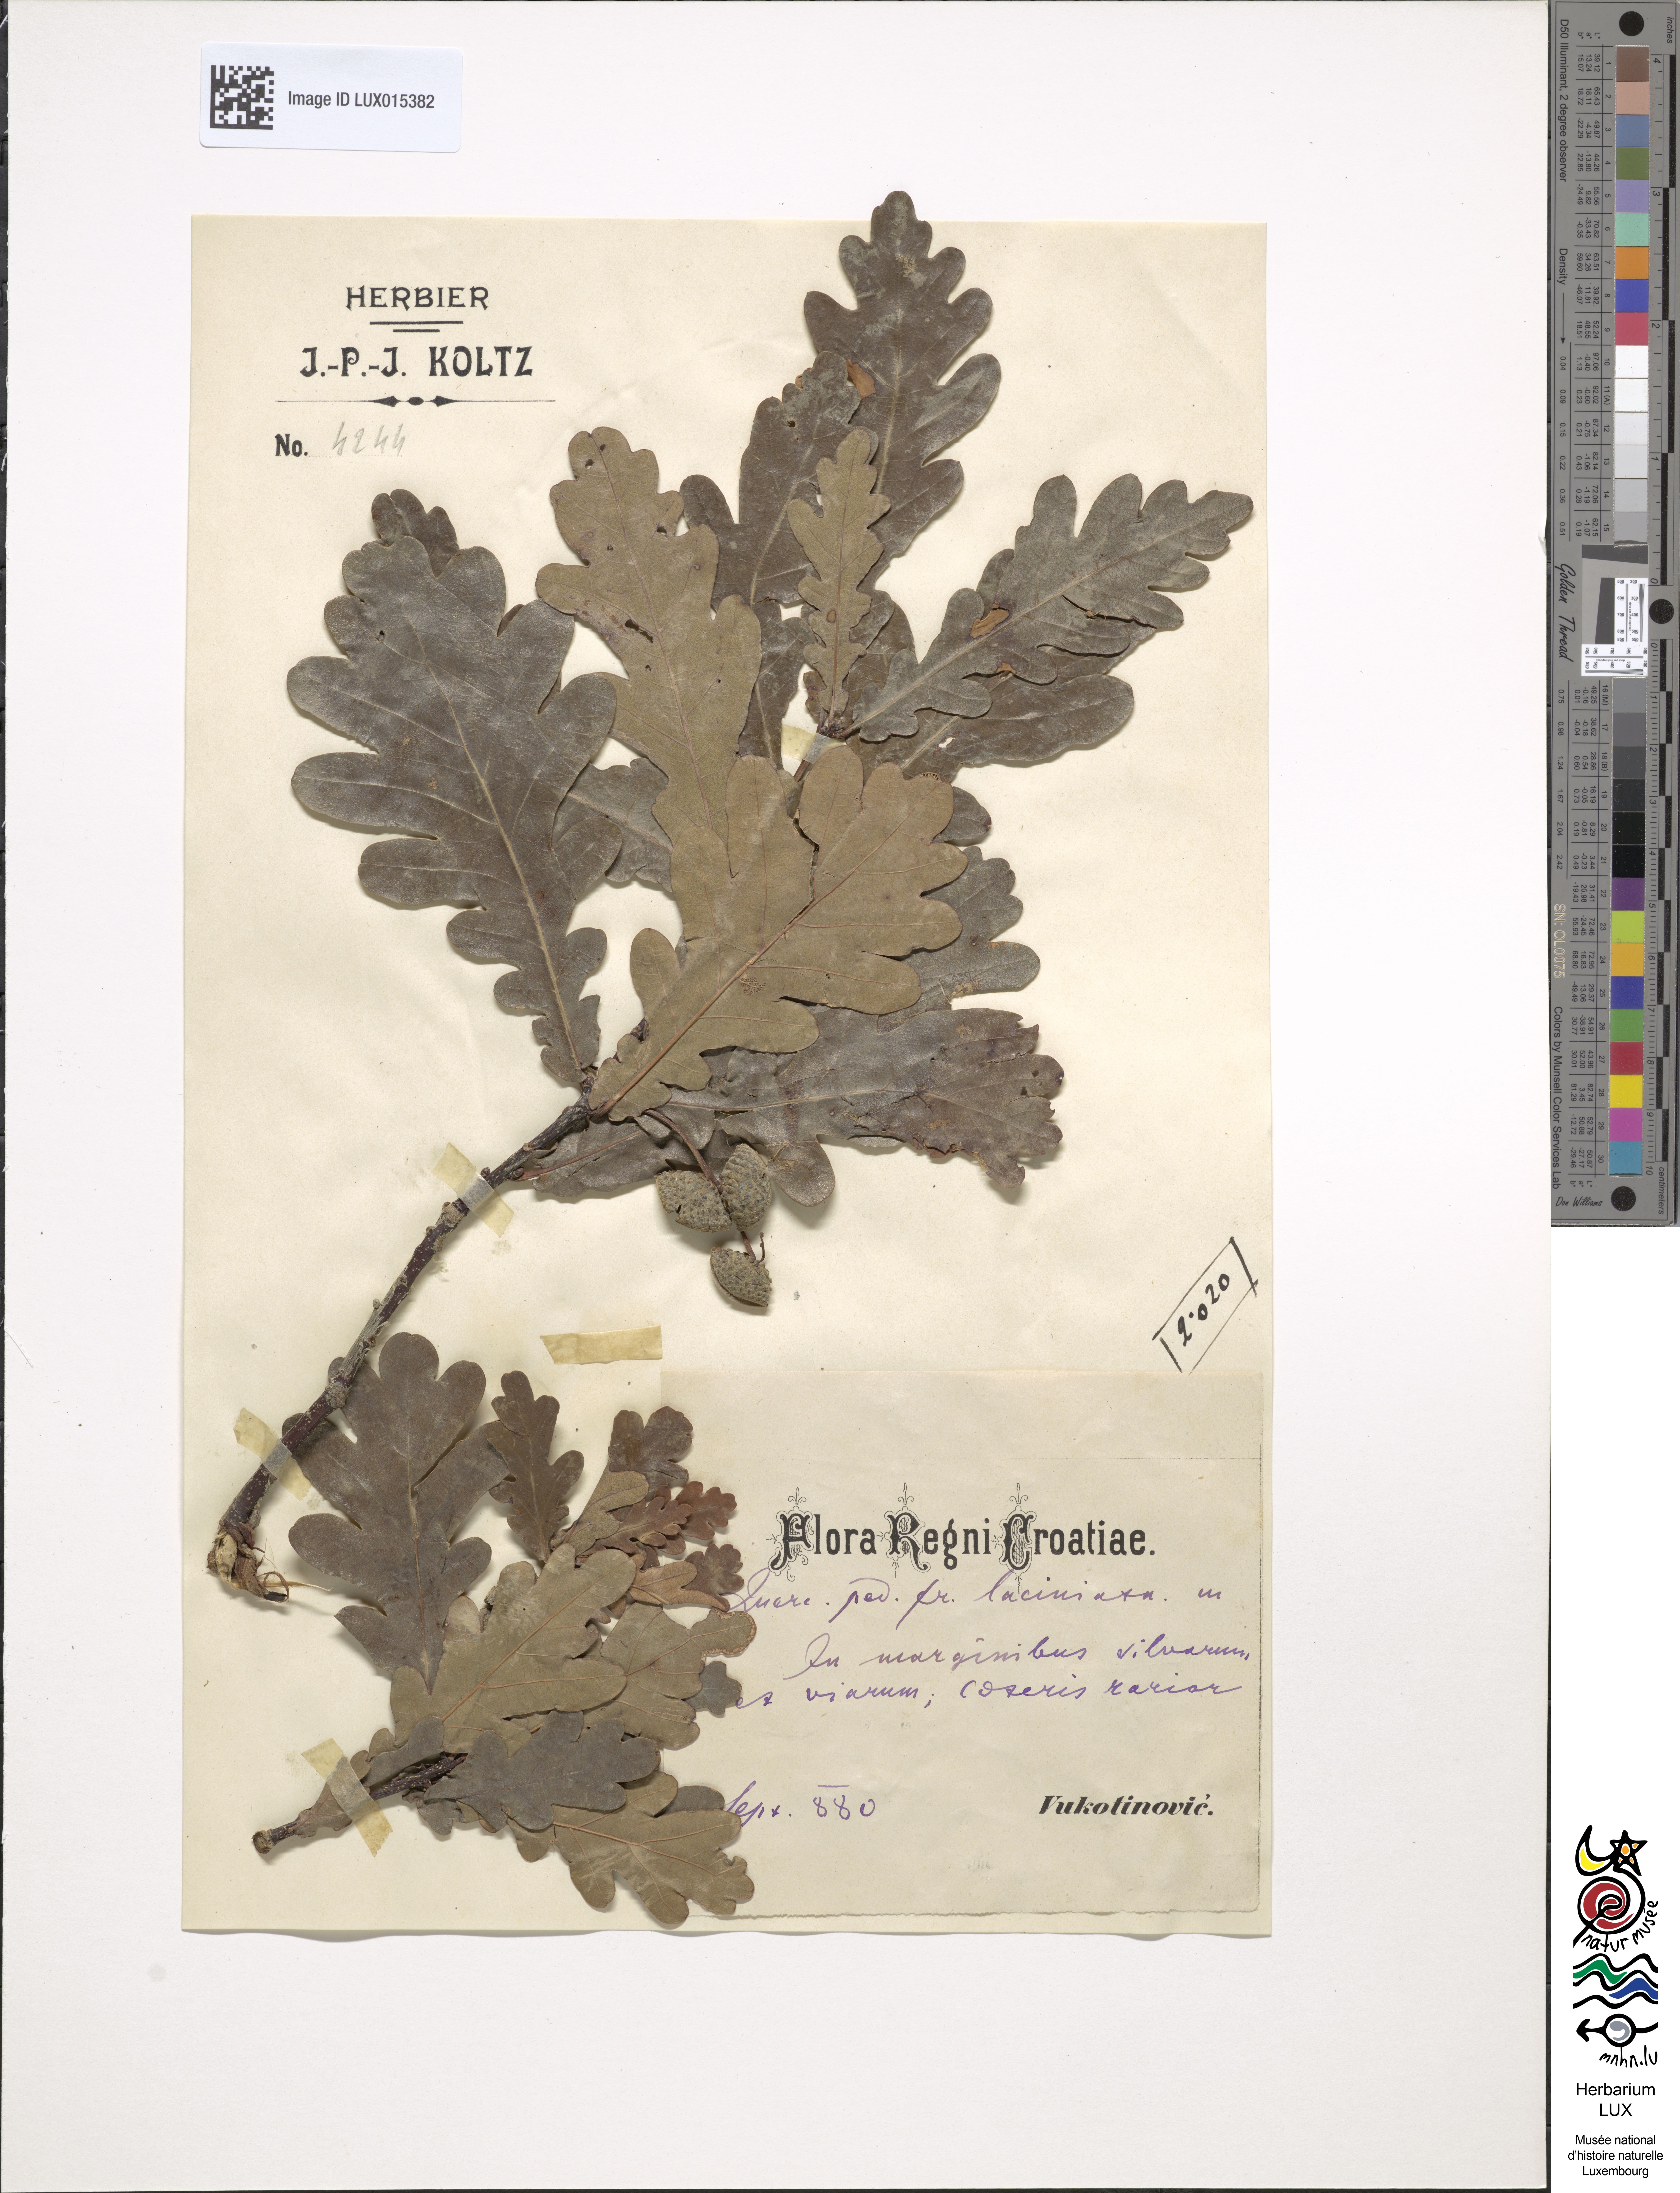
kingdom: Plantae
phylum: Tracheophyta
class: Magnoliopsida
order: Fagales
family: Fagaceae
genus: Quercus
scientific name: Quercus robur
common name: Pedunculate oak
